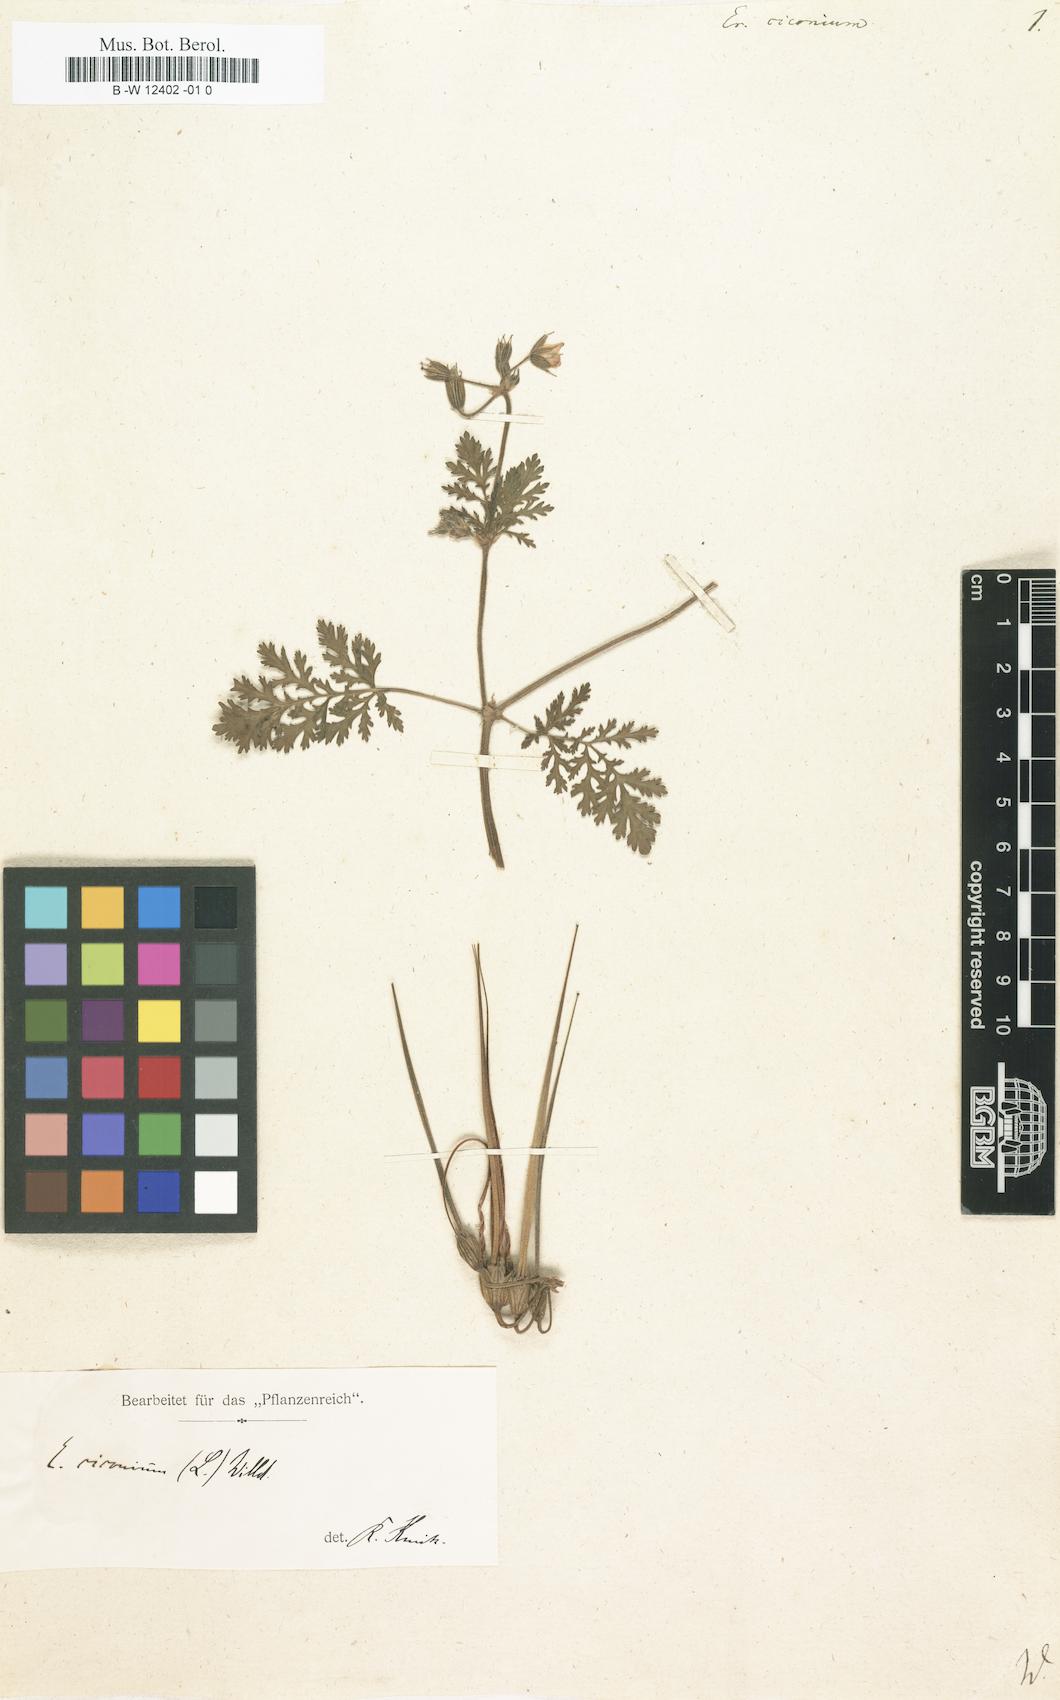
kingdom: Plantae
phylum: Tracheophyta
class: Magnoliopsida
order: Geraniales
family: Geraniaceae
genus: Erodium
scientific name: Erodium ciconium
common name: Common stork's bill
